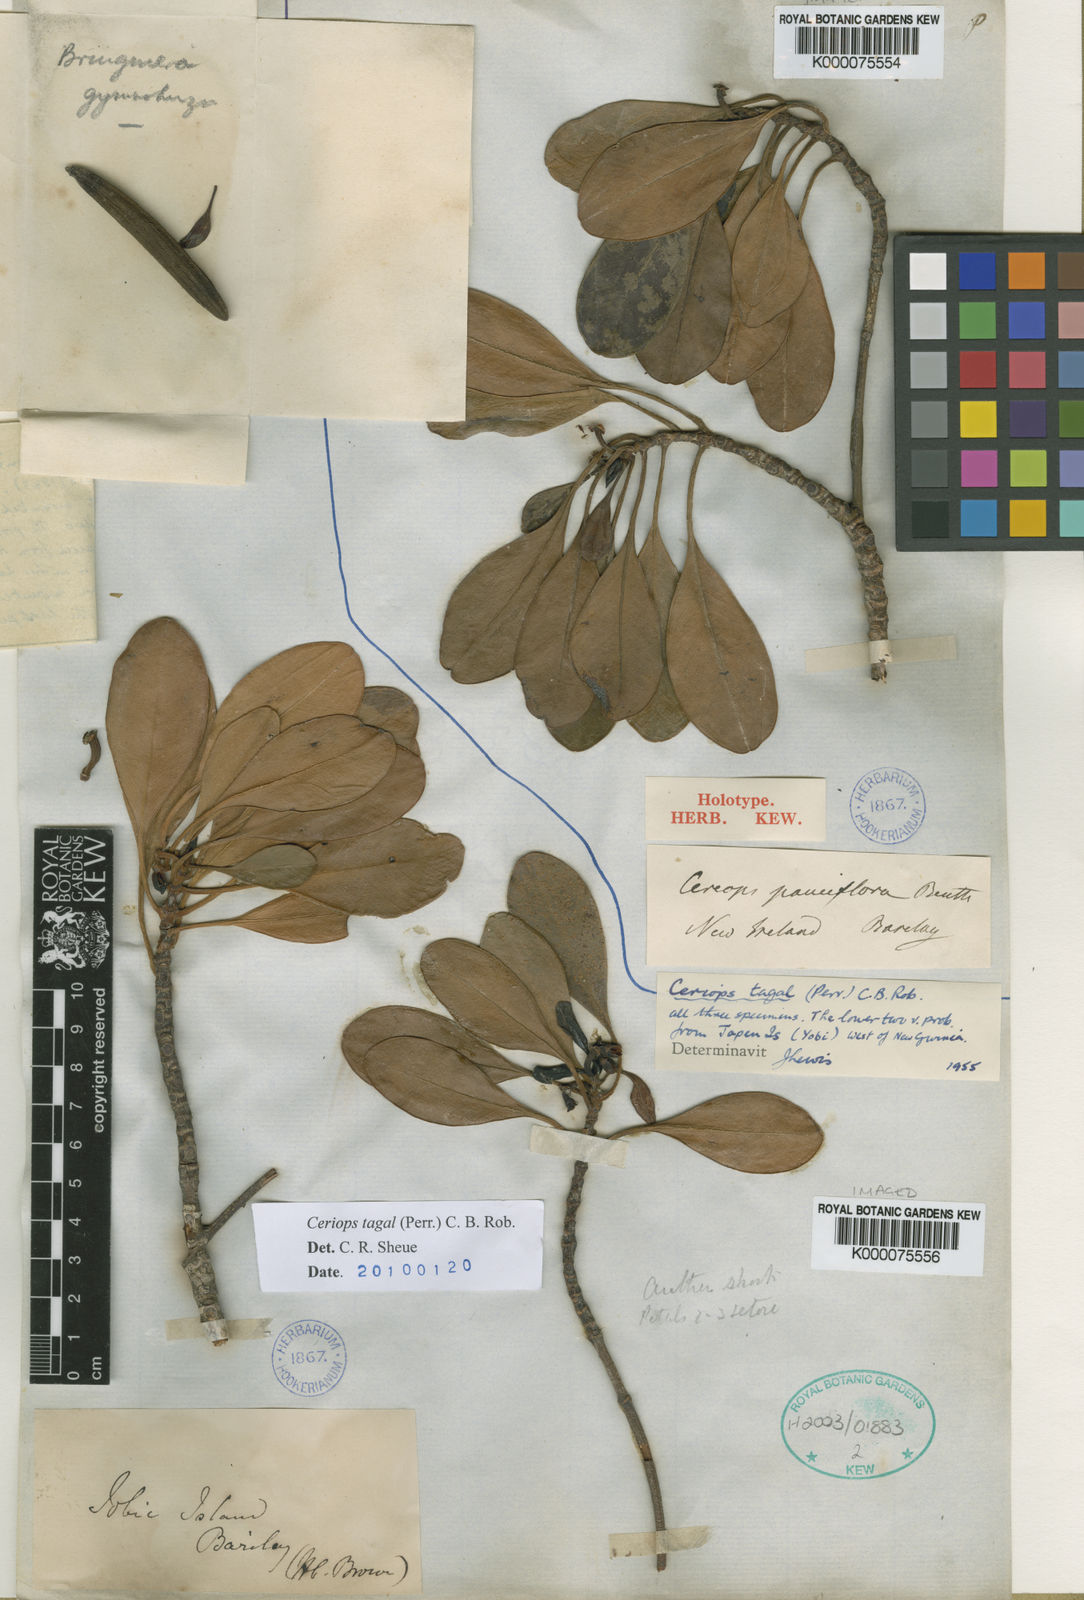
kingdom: Plantae
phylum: Tracheophyta
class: Magnoliopsida
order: Malpighiales
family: Rhizophoraceae
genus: Ceriops
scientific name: Ceriops tagal
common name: Spurred mangrove
